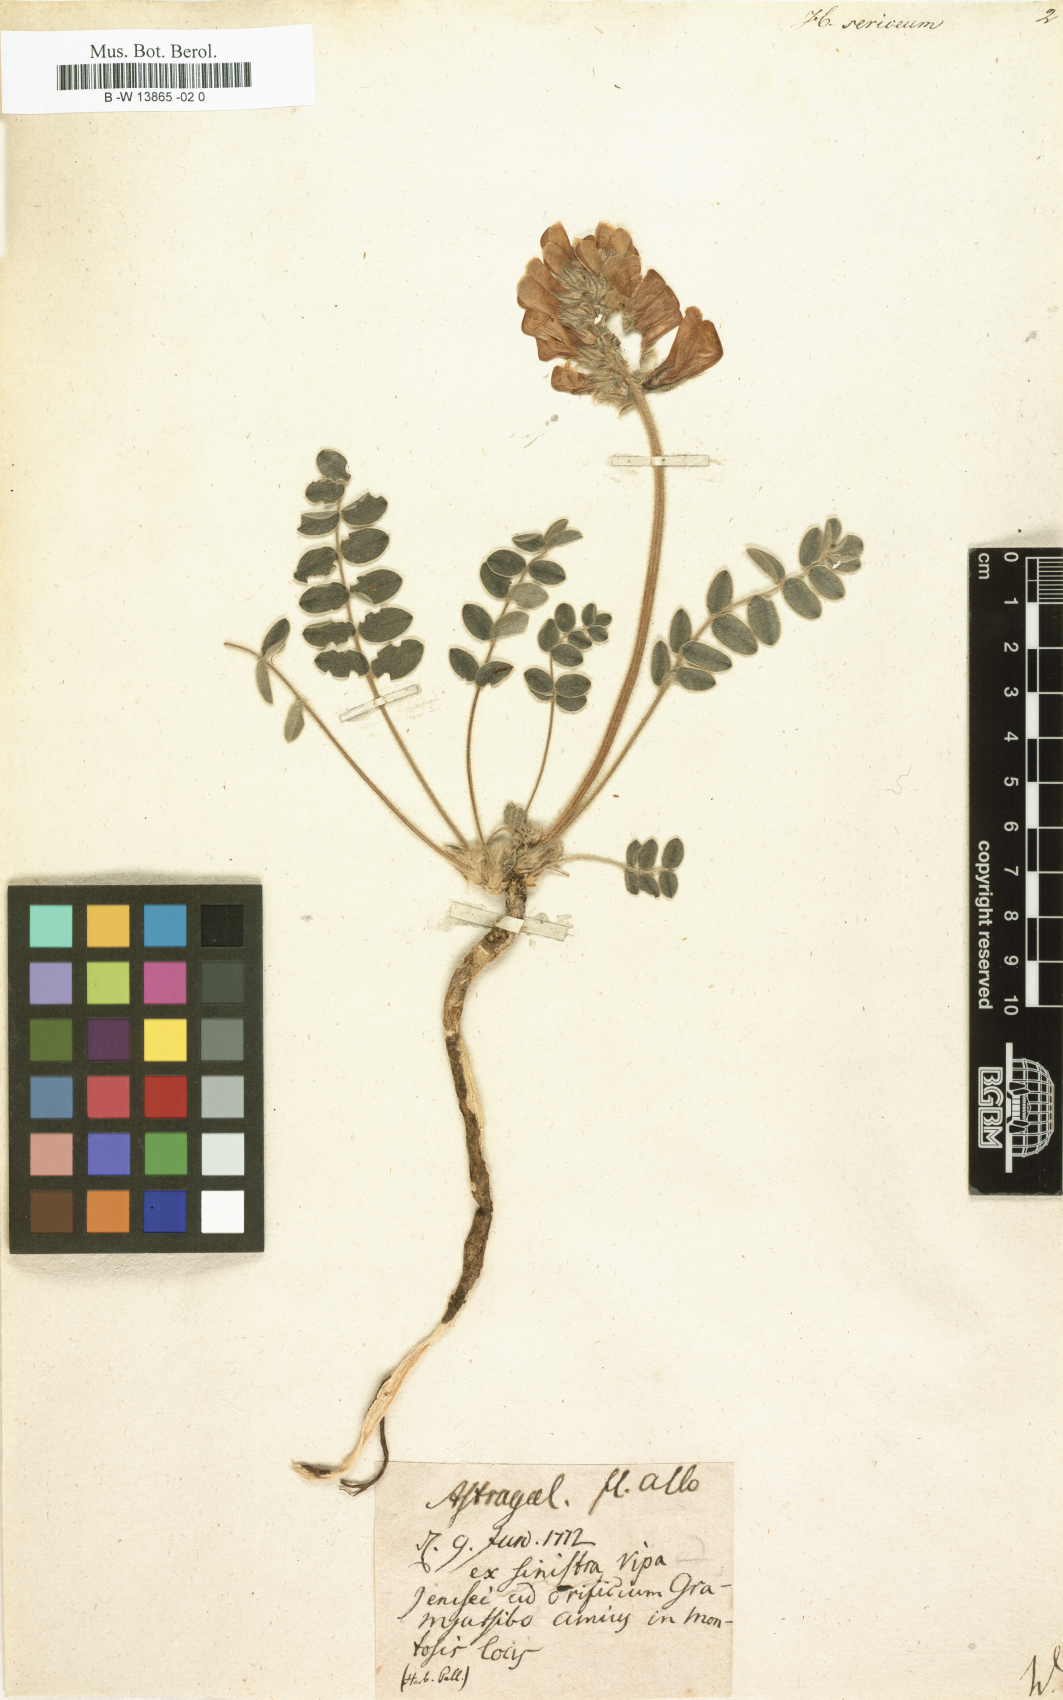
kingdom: Plantae
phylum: Tracheophyta
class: Magnoliopsida
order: Fabales
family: Fabaceae
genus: Desmodium
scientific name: Desmodium cinereum
